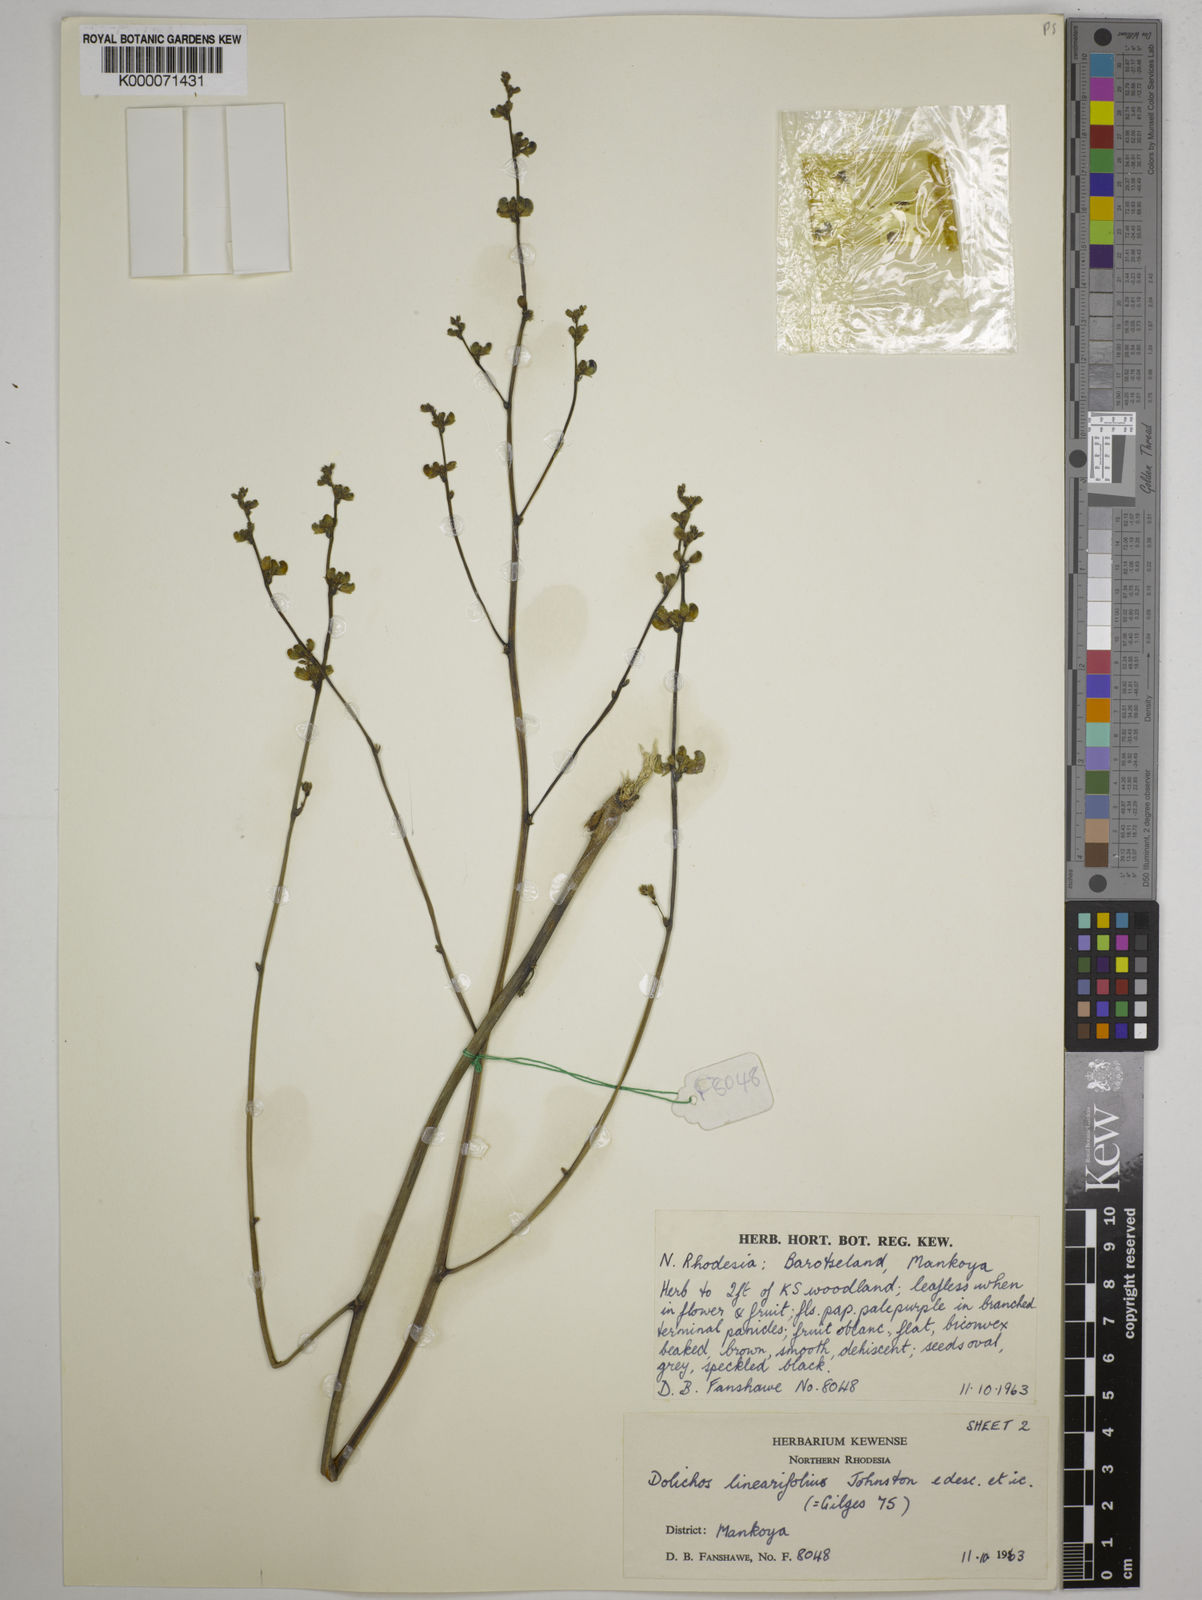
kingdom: Plantae
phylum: Tracheophyta
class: Magnoliopsida
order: Fabales
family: Fabaceae
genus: Dolichos
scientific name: Dolichos linearifolius
